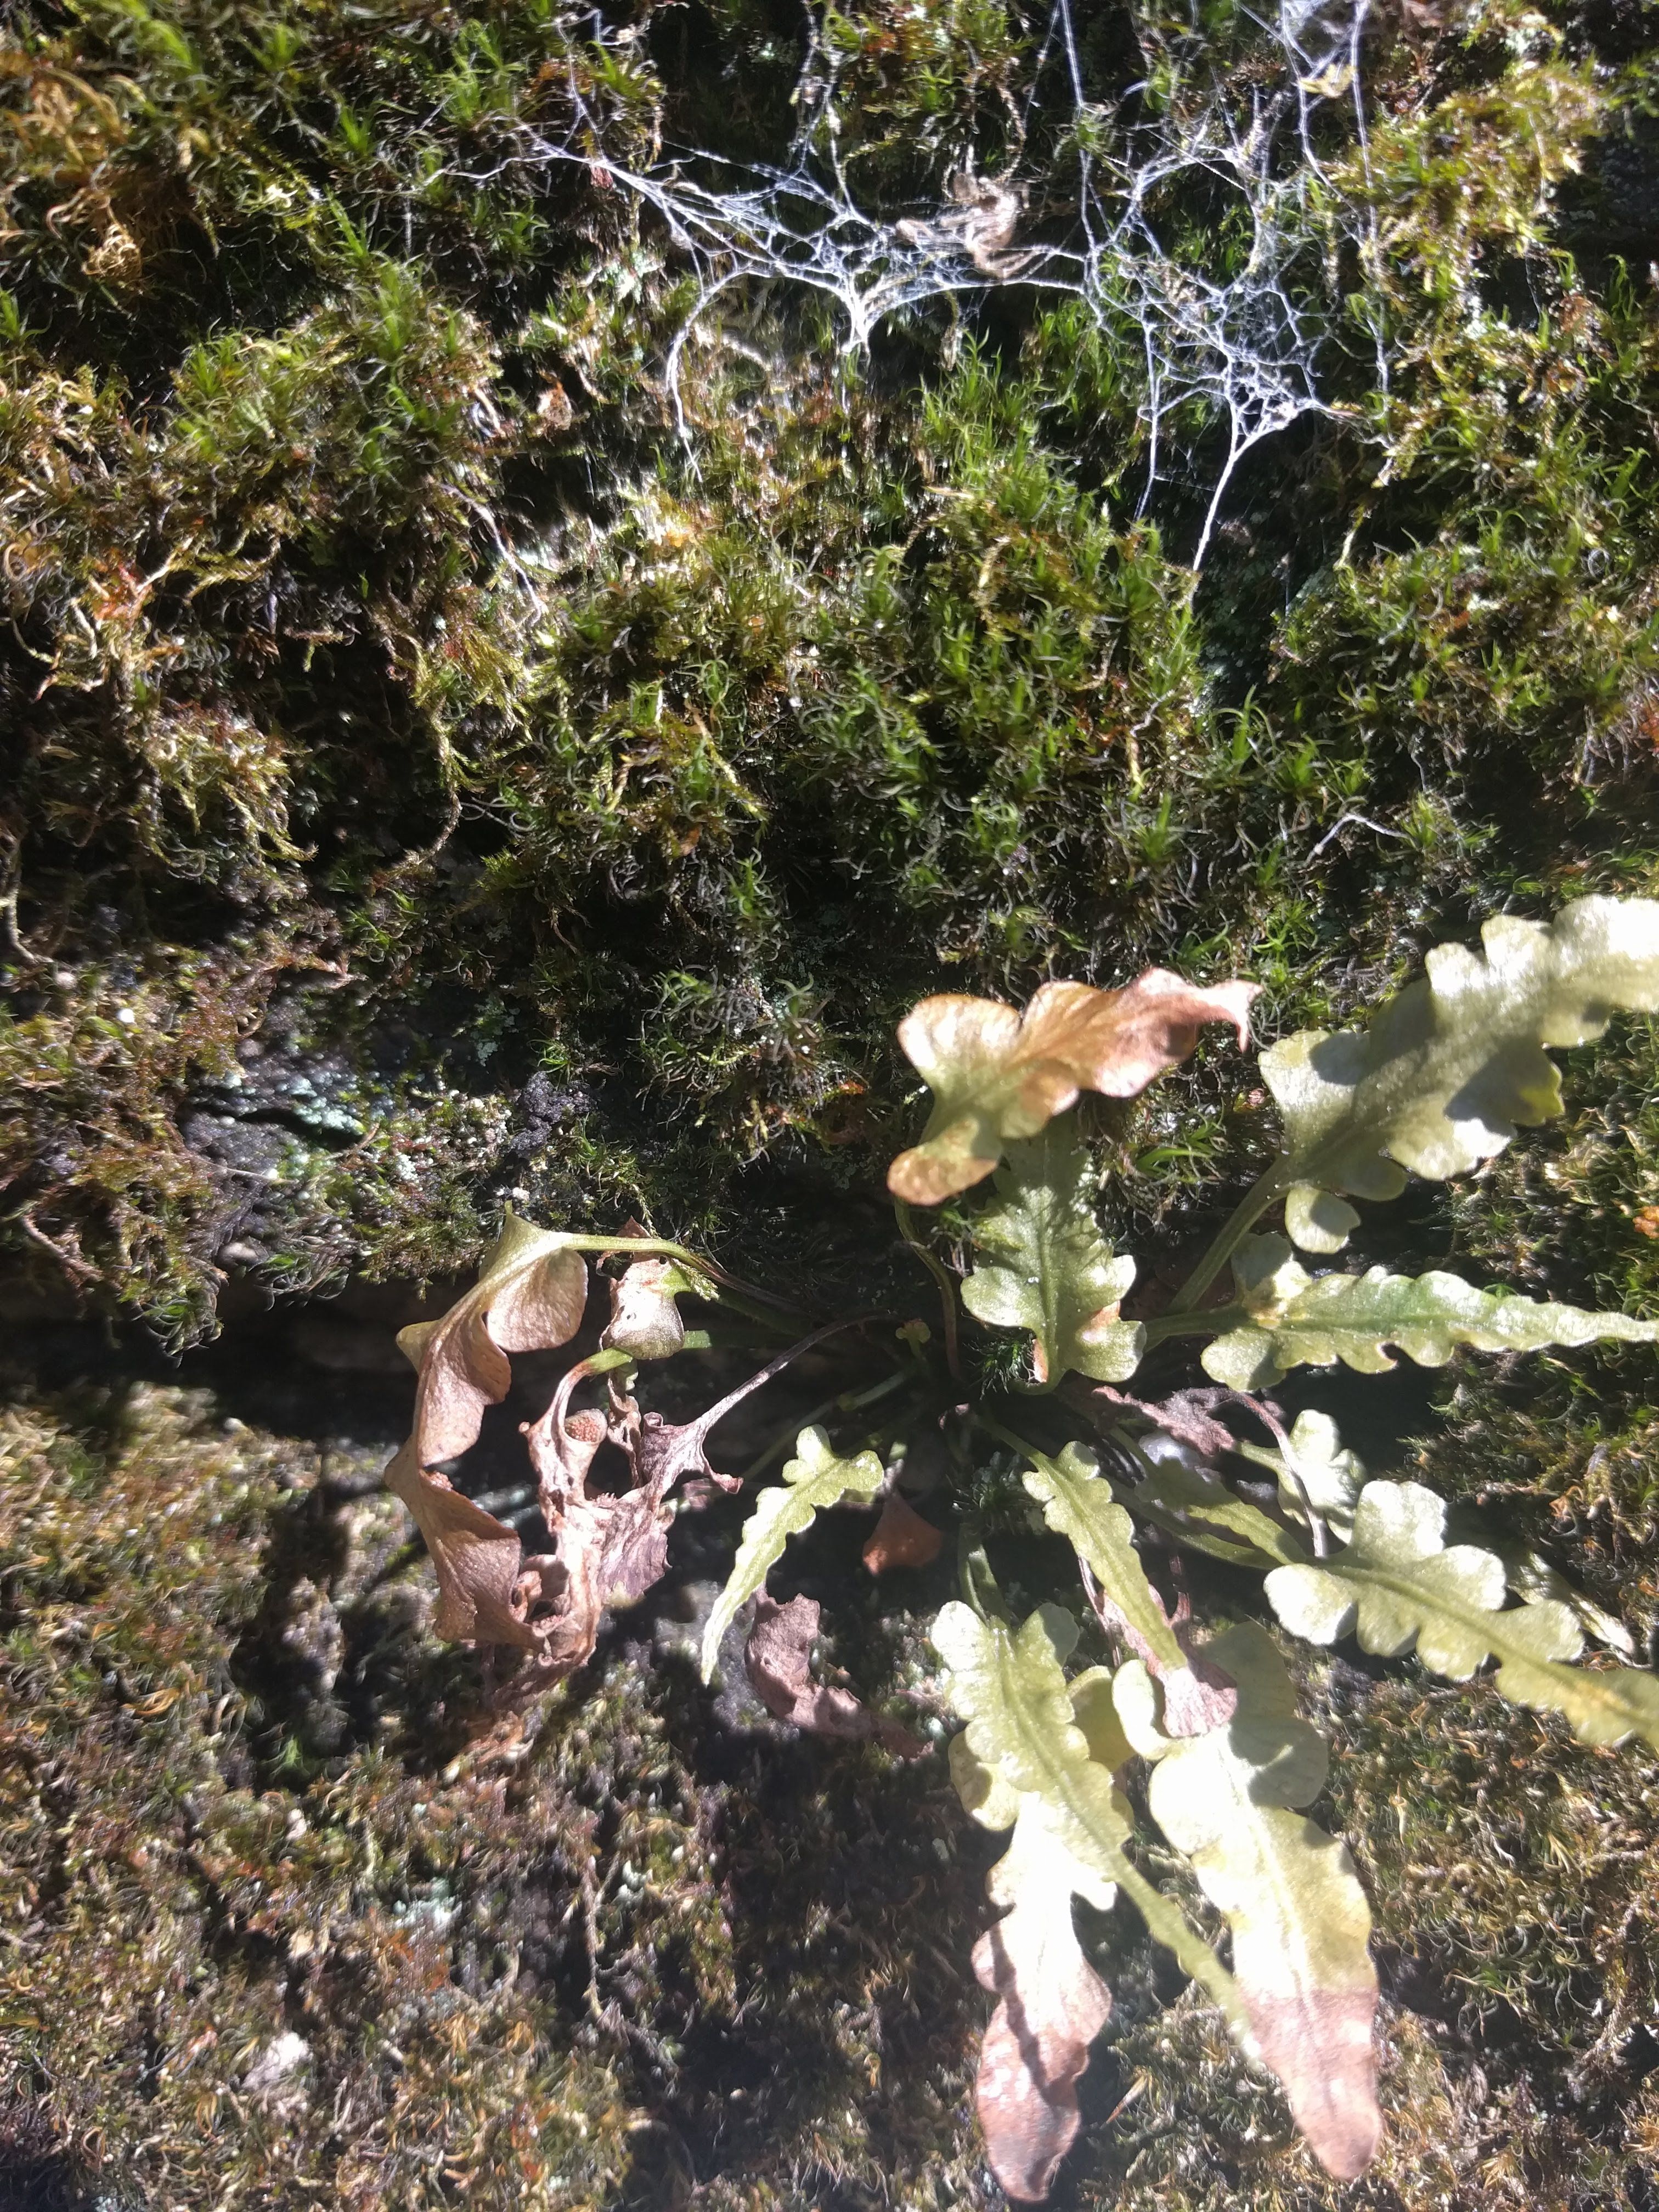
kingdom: Plantae
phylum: Tracheophyta
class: Polypodiopsida
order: Polypodiales
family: Aspleniaceae
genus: Asplenium
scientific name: Asplenium pinnatifidum
